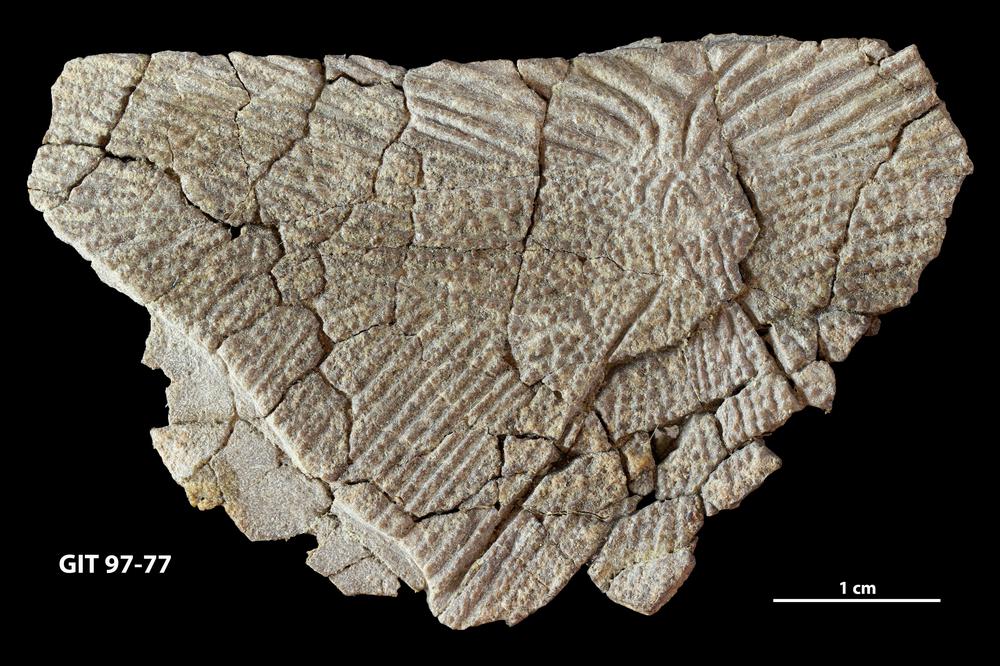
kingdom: Animalia
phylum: Chordata
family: Holonematidae
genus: Holonema
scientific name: Holonema
